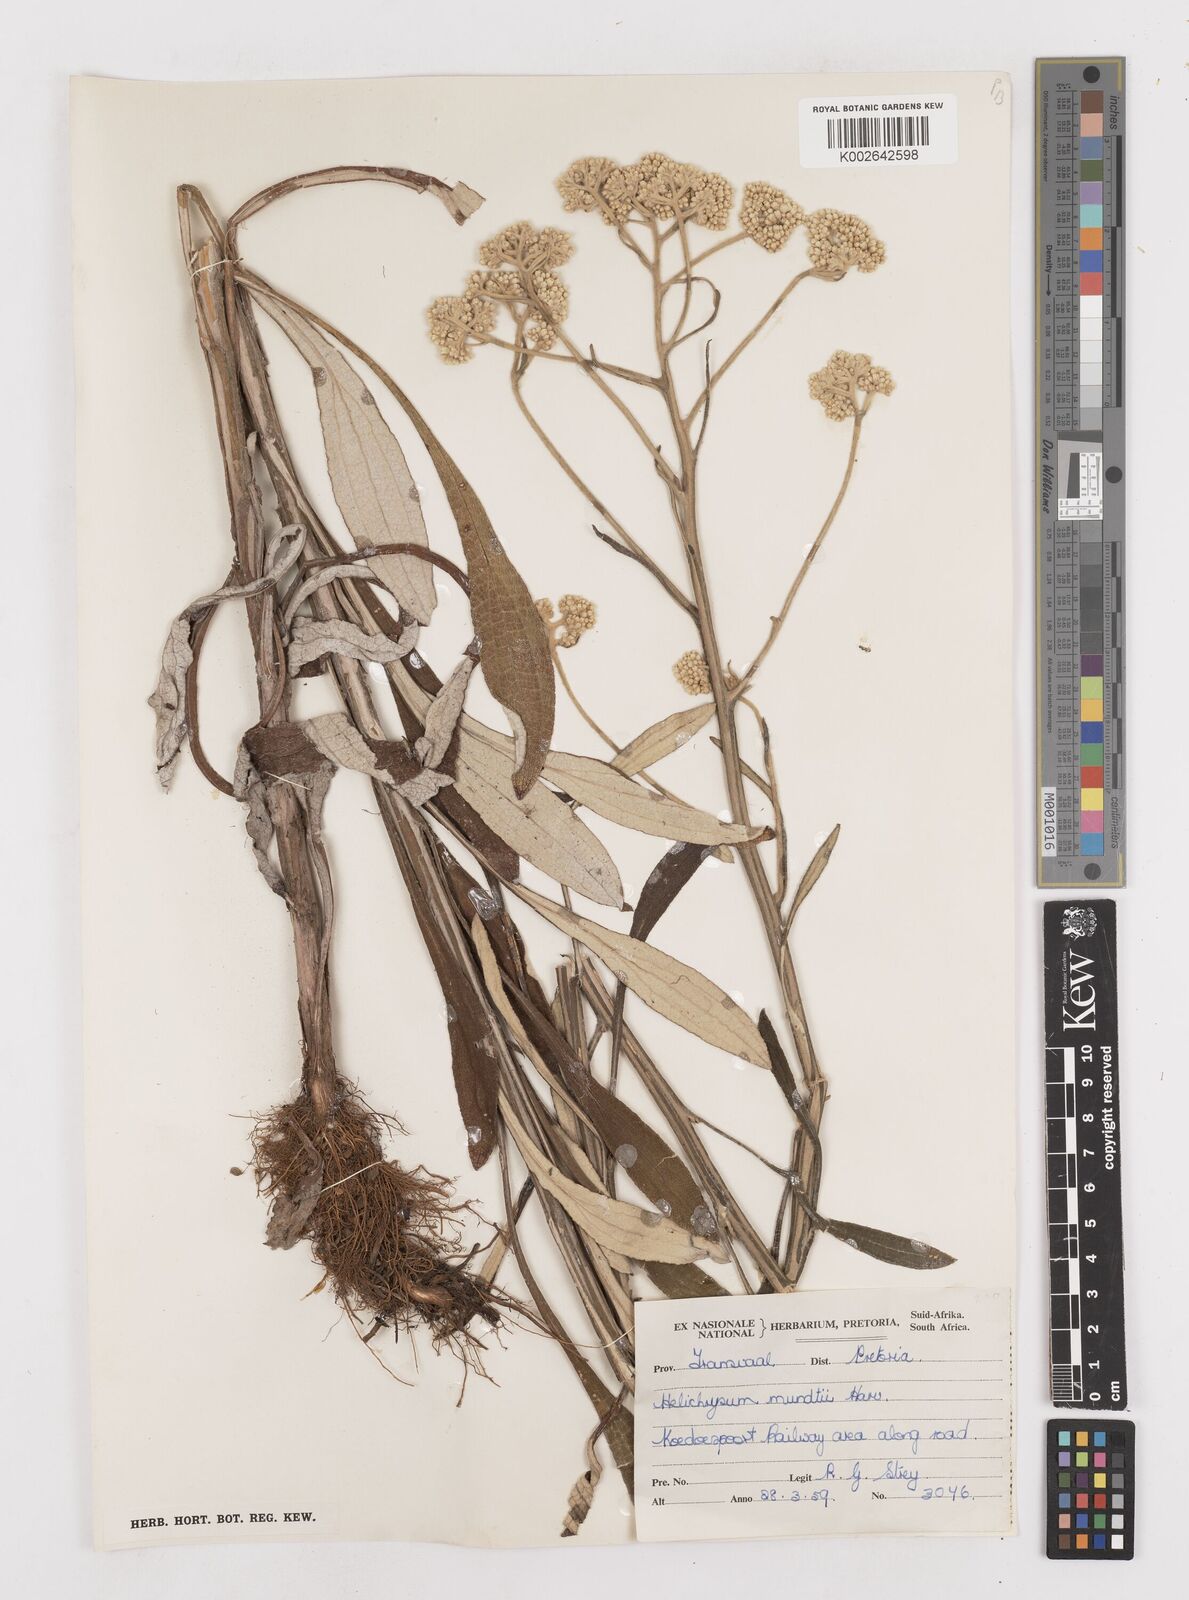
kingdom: Plantae
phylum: Tracheophyta
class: Magnoliopsida
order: Asterales
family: Asteraceae
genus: Helichrysum
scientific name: Helichrysum mundii
